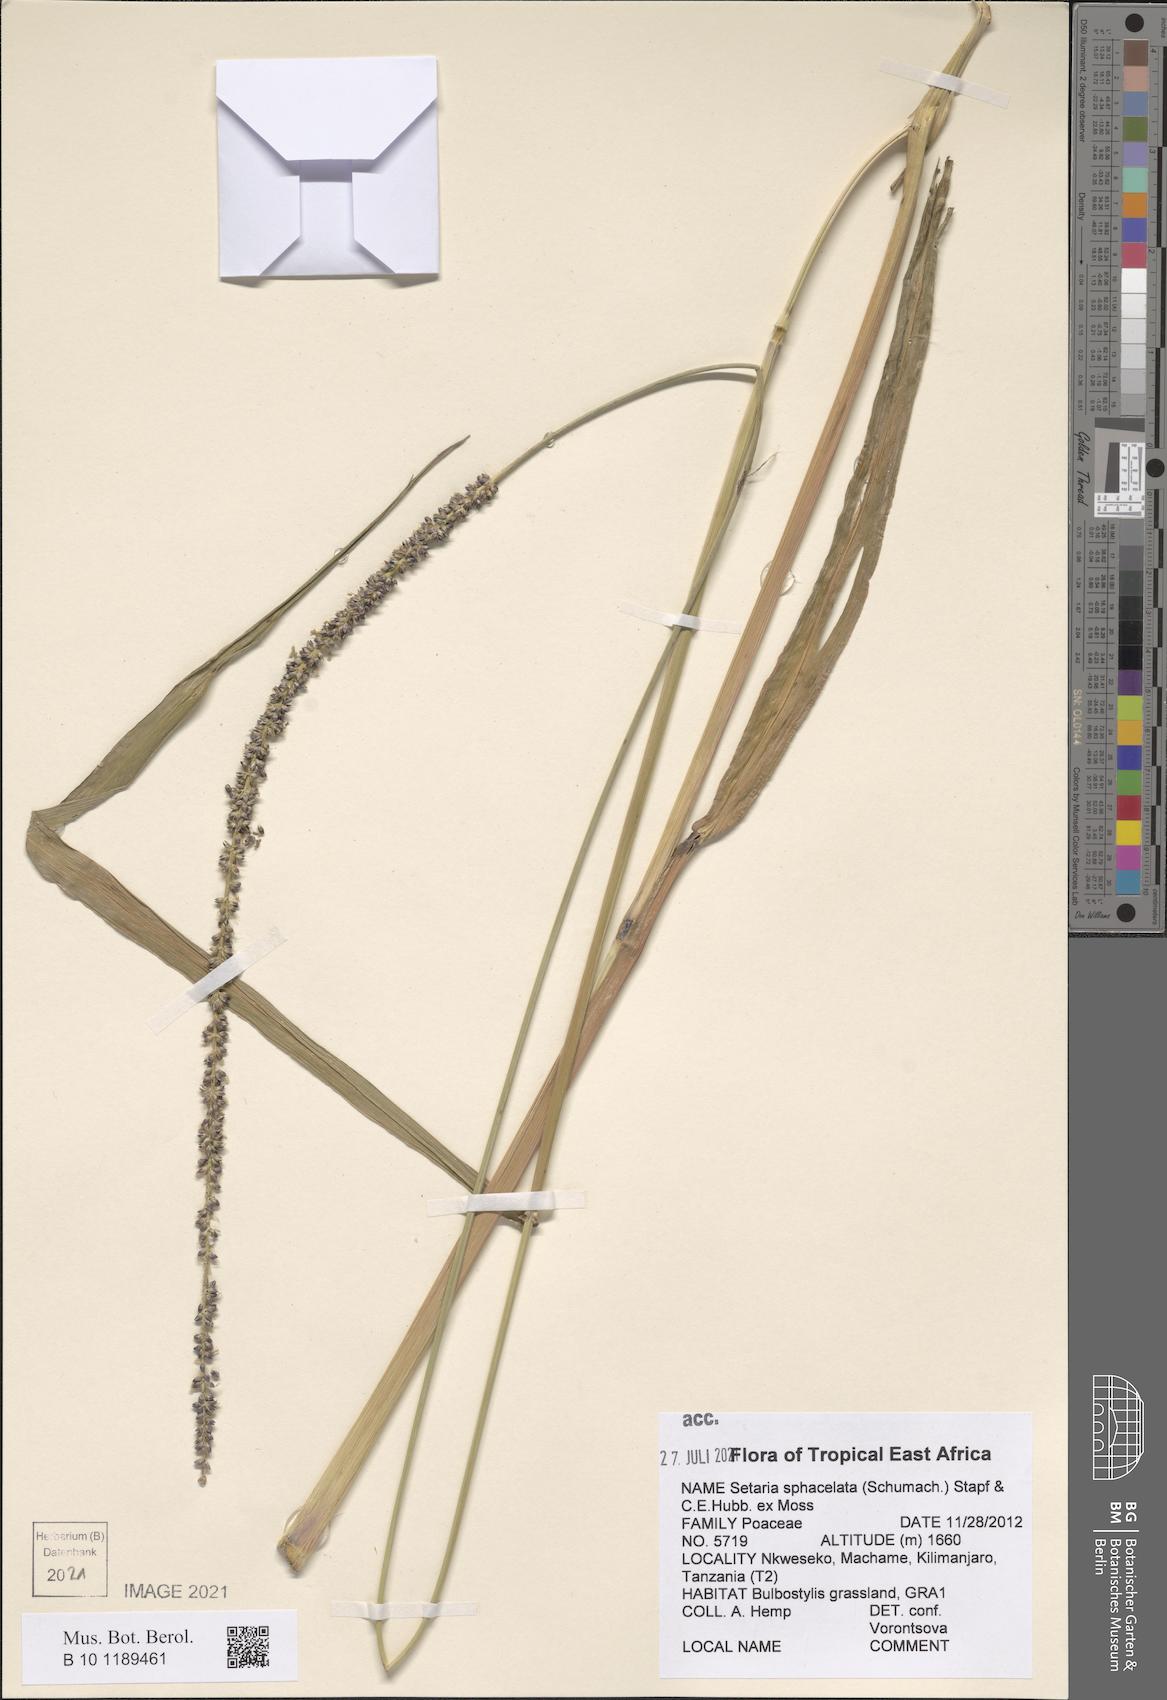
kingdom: Plantae
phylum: Tracheophyta
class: Liliopsida
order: Poales
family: Poaceae
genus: Setaria
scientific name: Setaria sphacelata
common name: African bristlegrass
